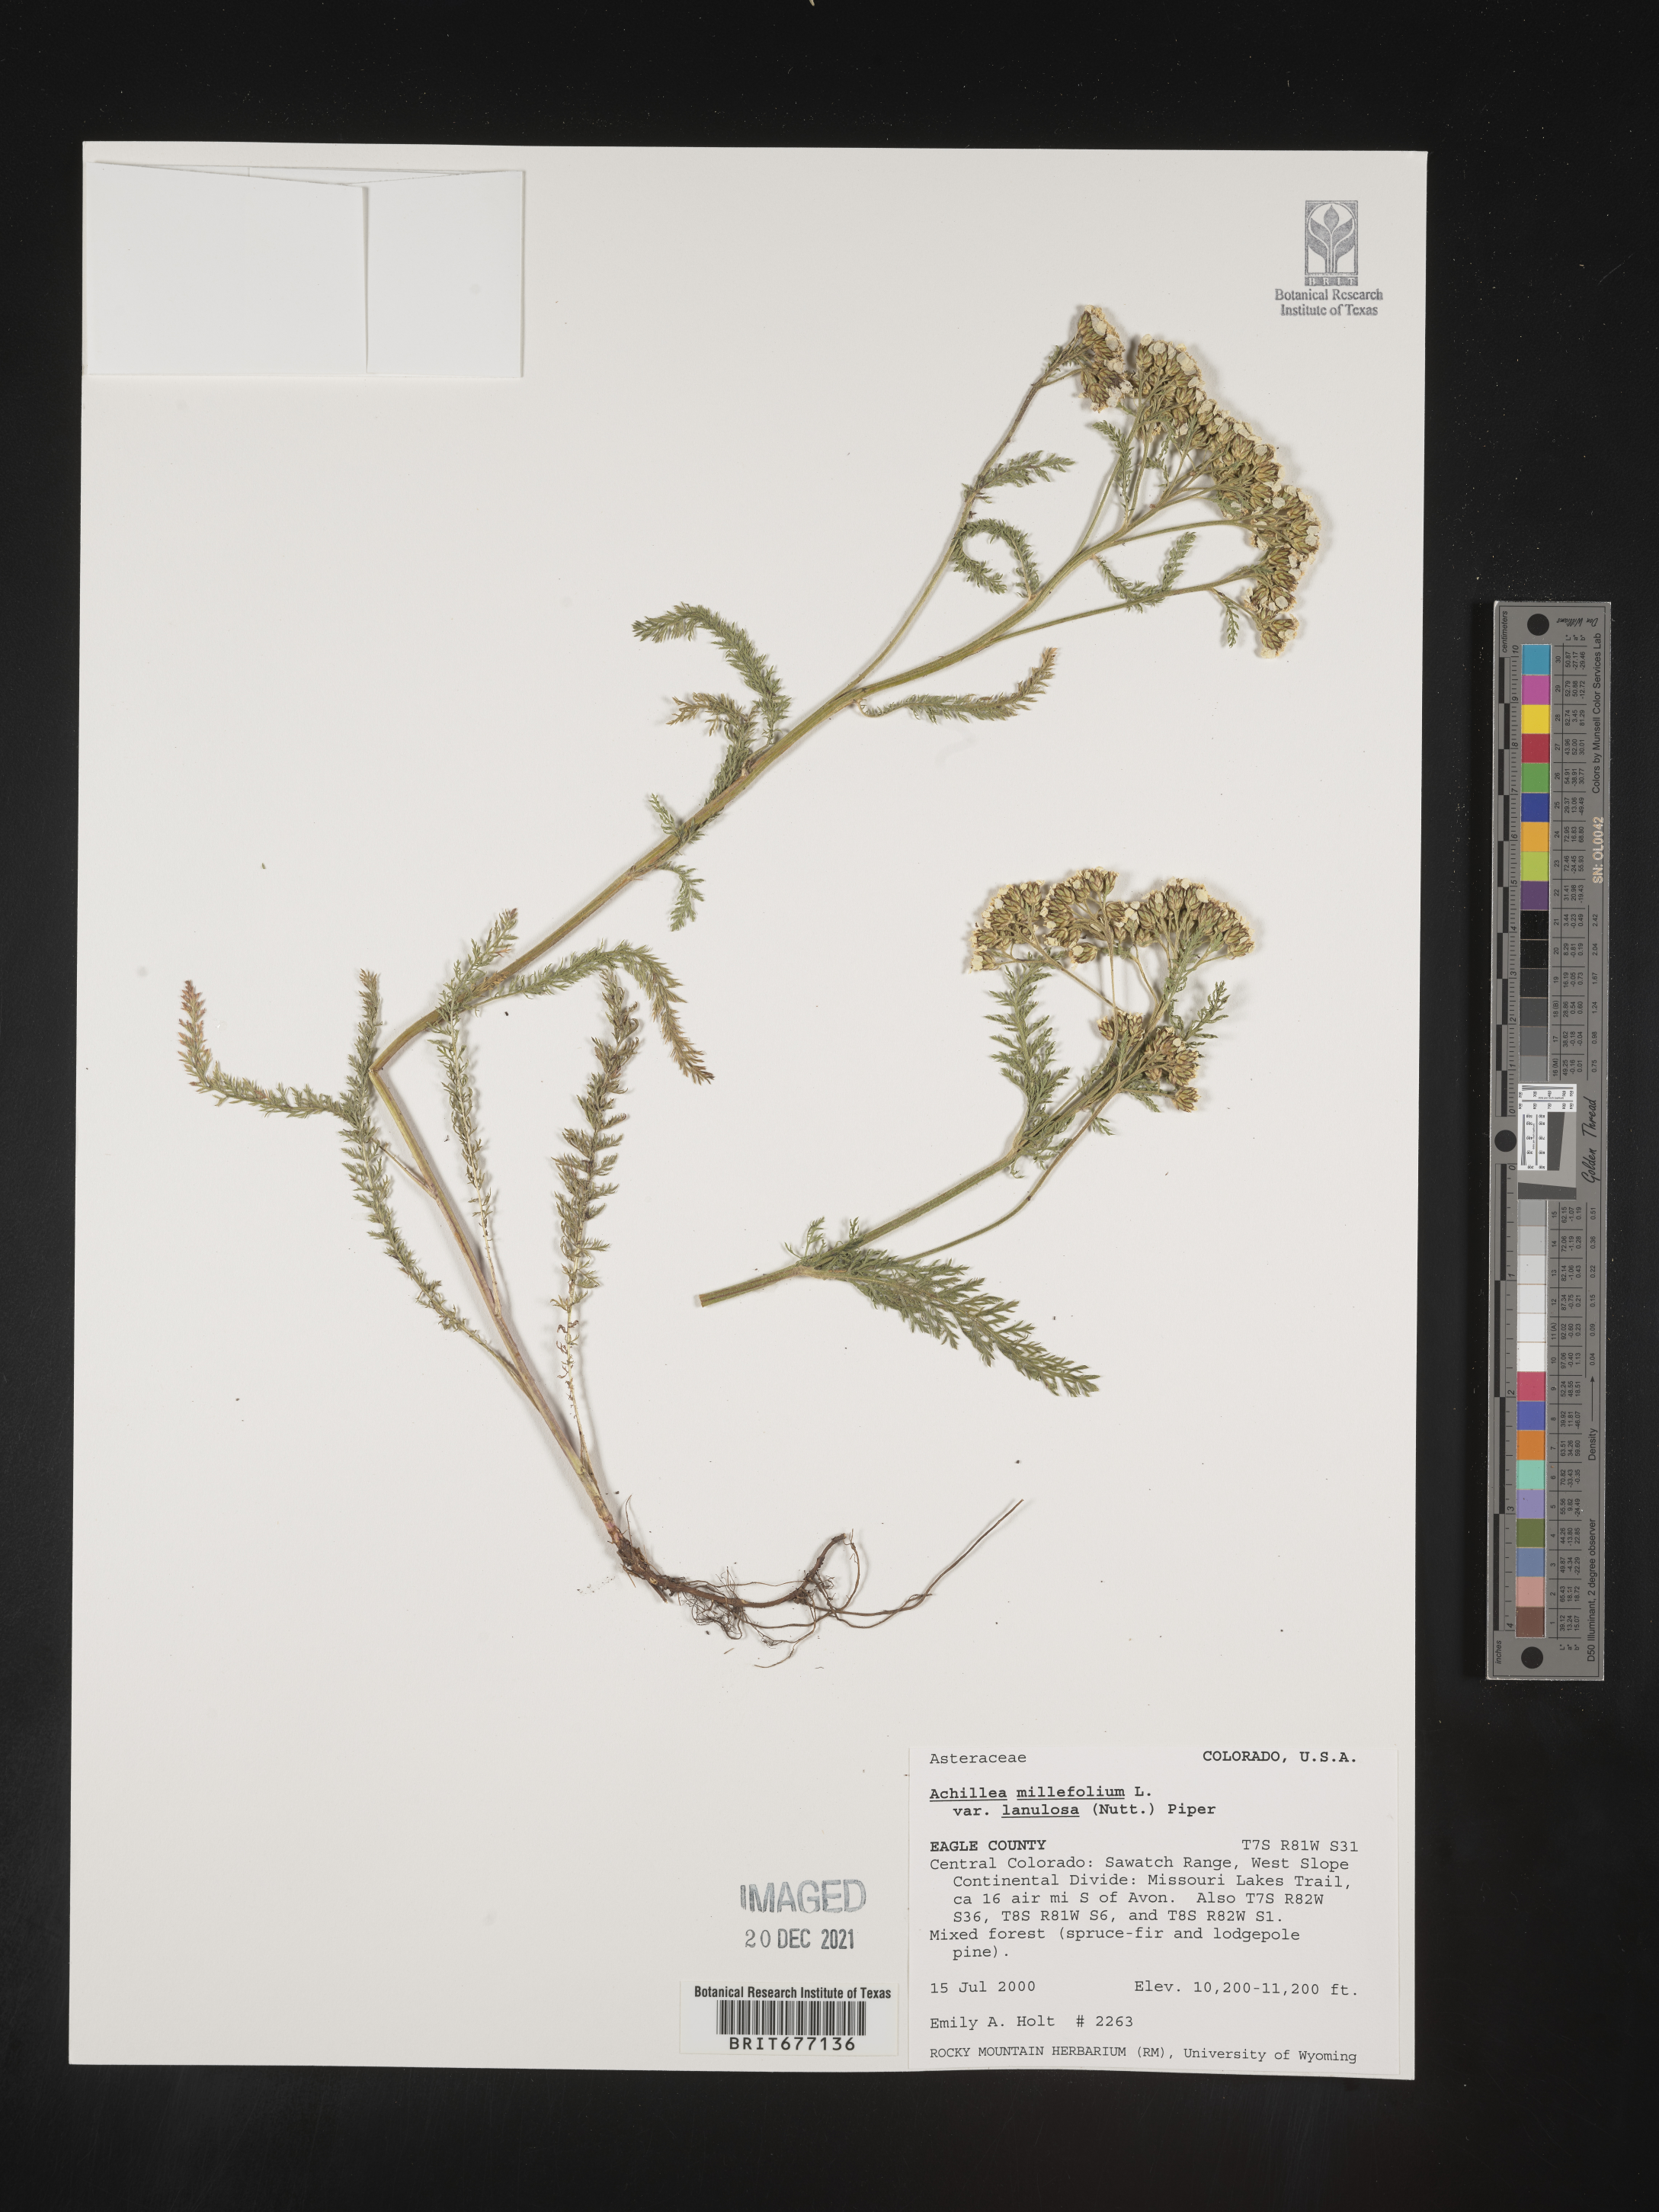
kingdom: Plantae
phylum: Tracheophyta
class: Magnoliopsida
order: Asterales
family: Asteraceae
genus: Achillea
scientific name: Achillea millefolium
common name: Yarrow
